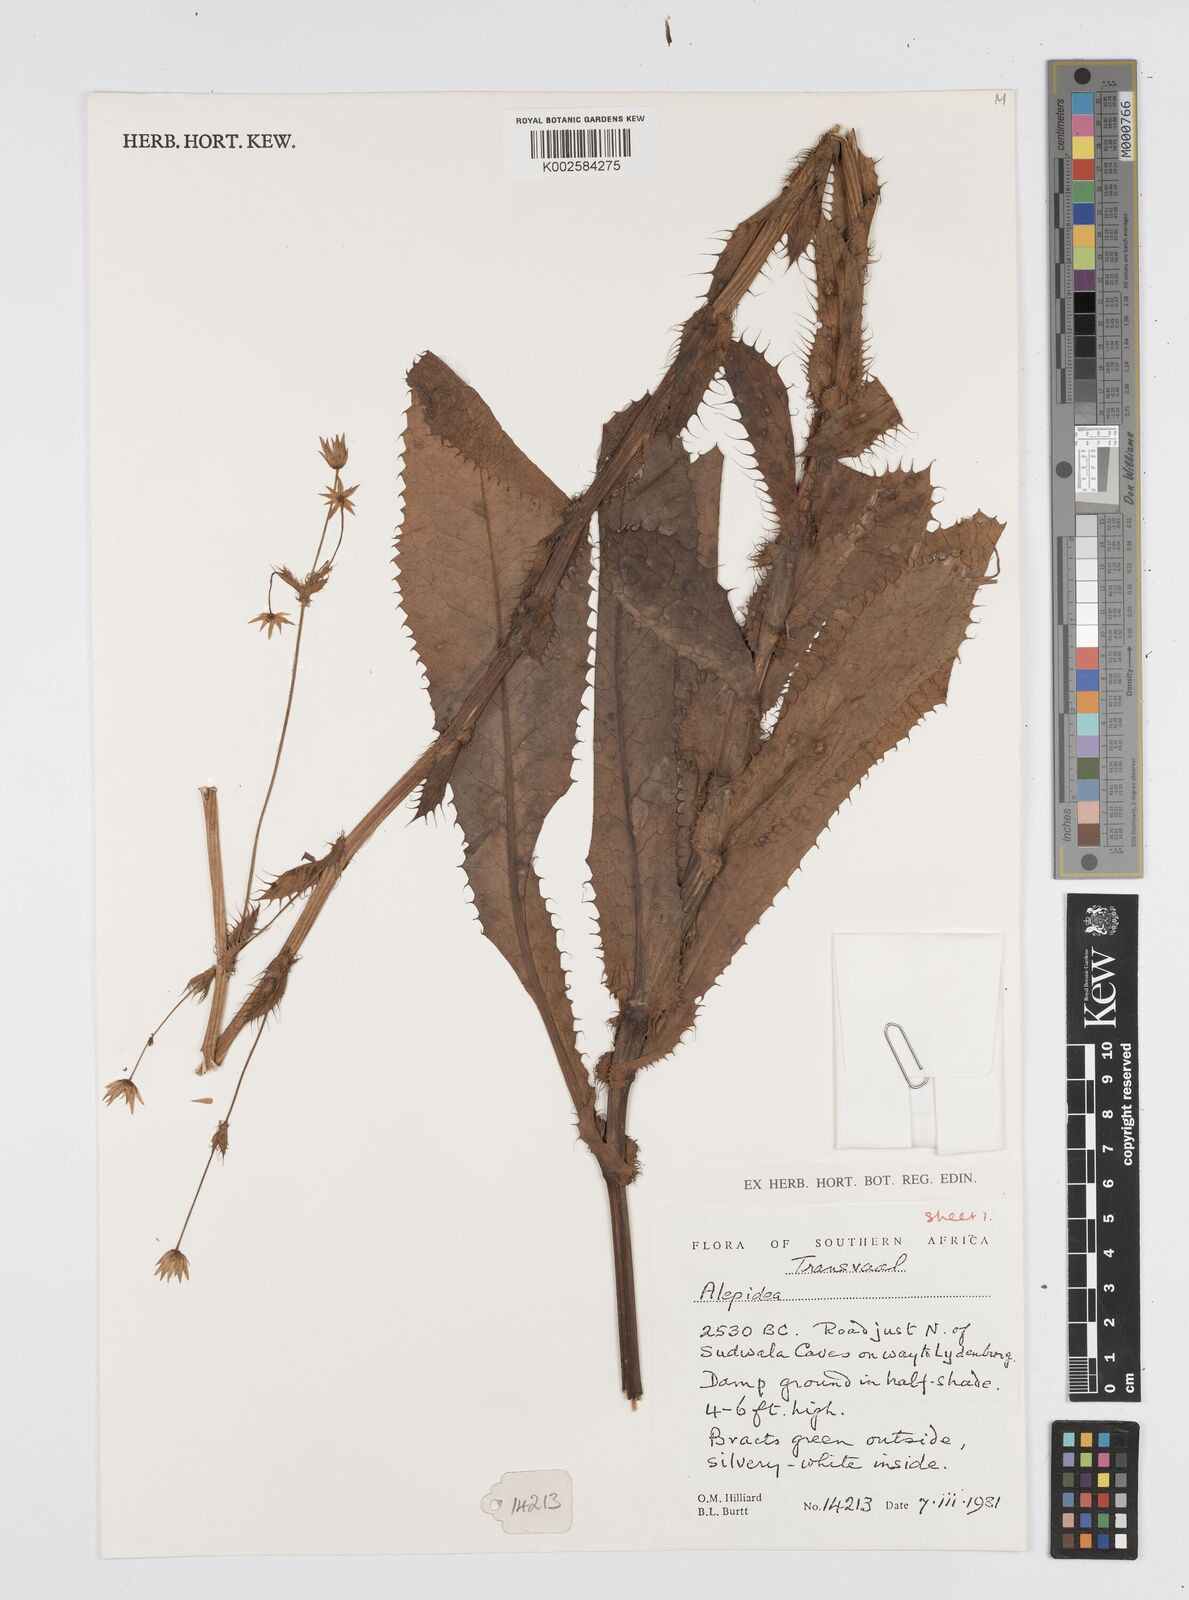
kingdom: Plantae
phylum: Tracheophyta
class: Magnoliopsida
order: Apiales
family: Apiaceae
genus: Alepidea
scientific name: Alepidea
